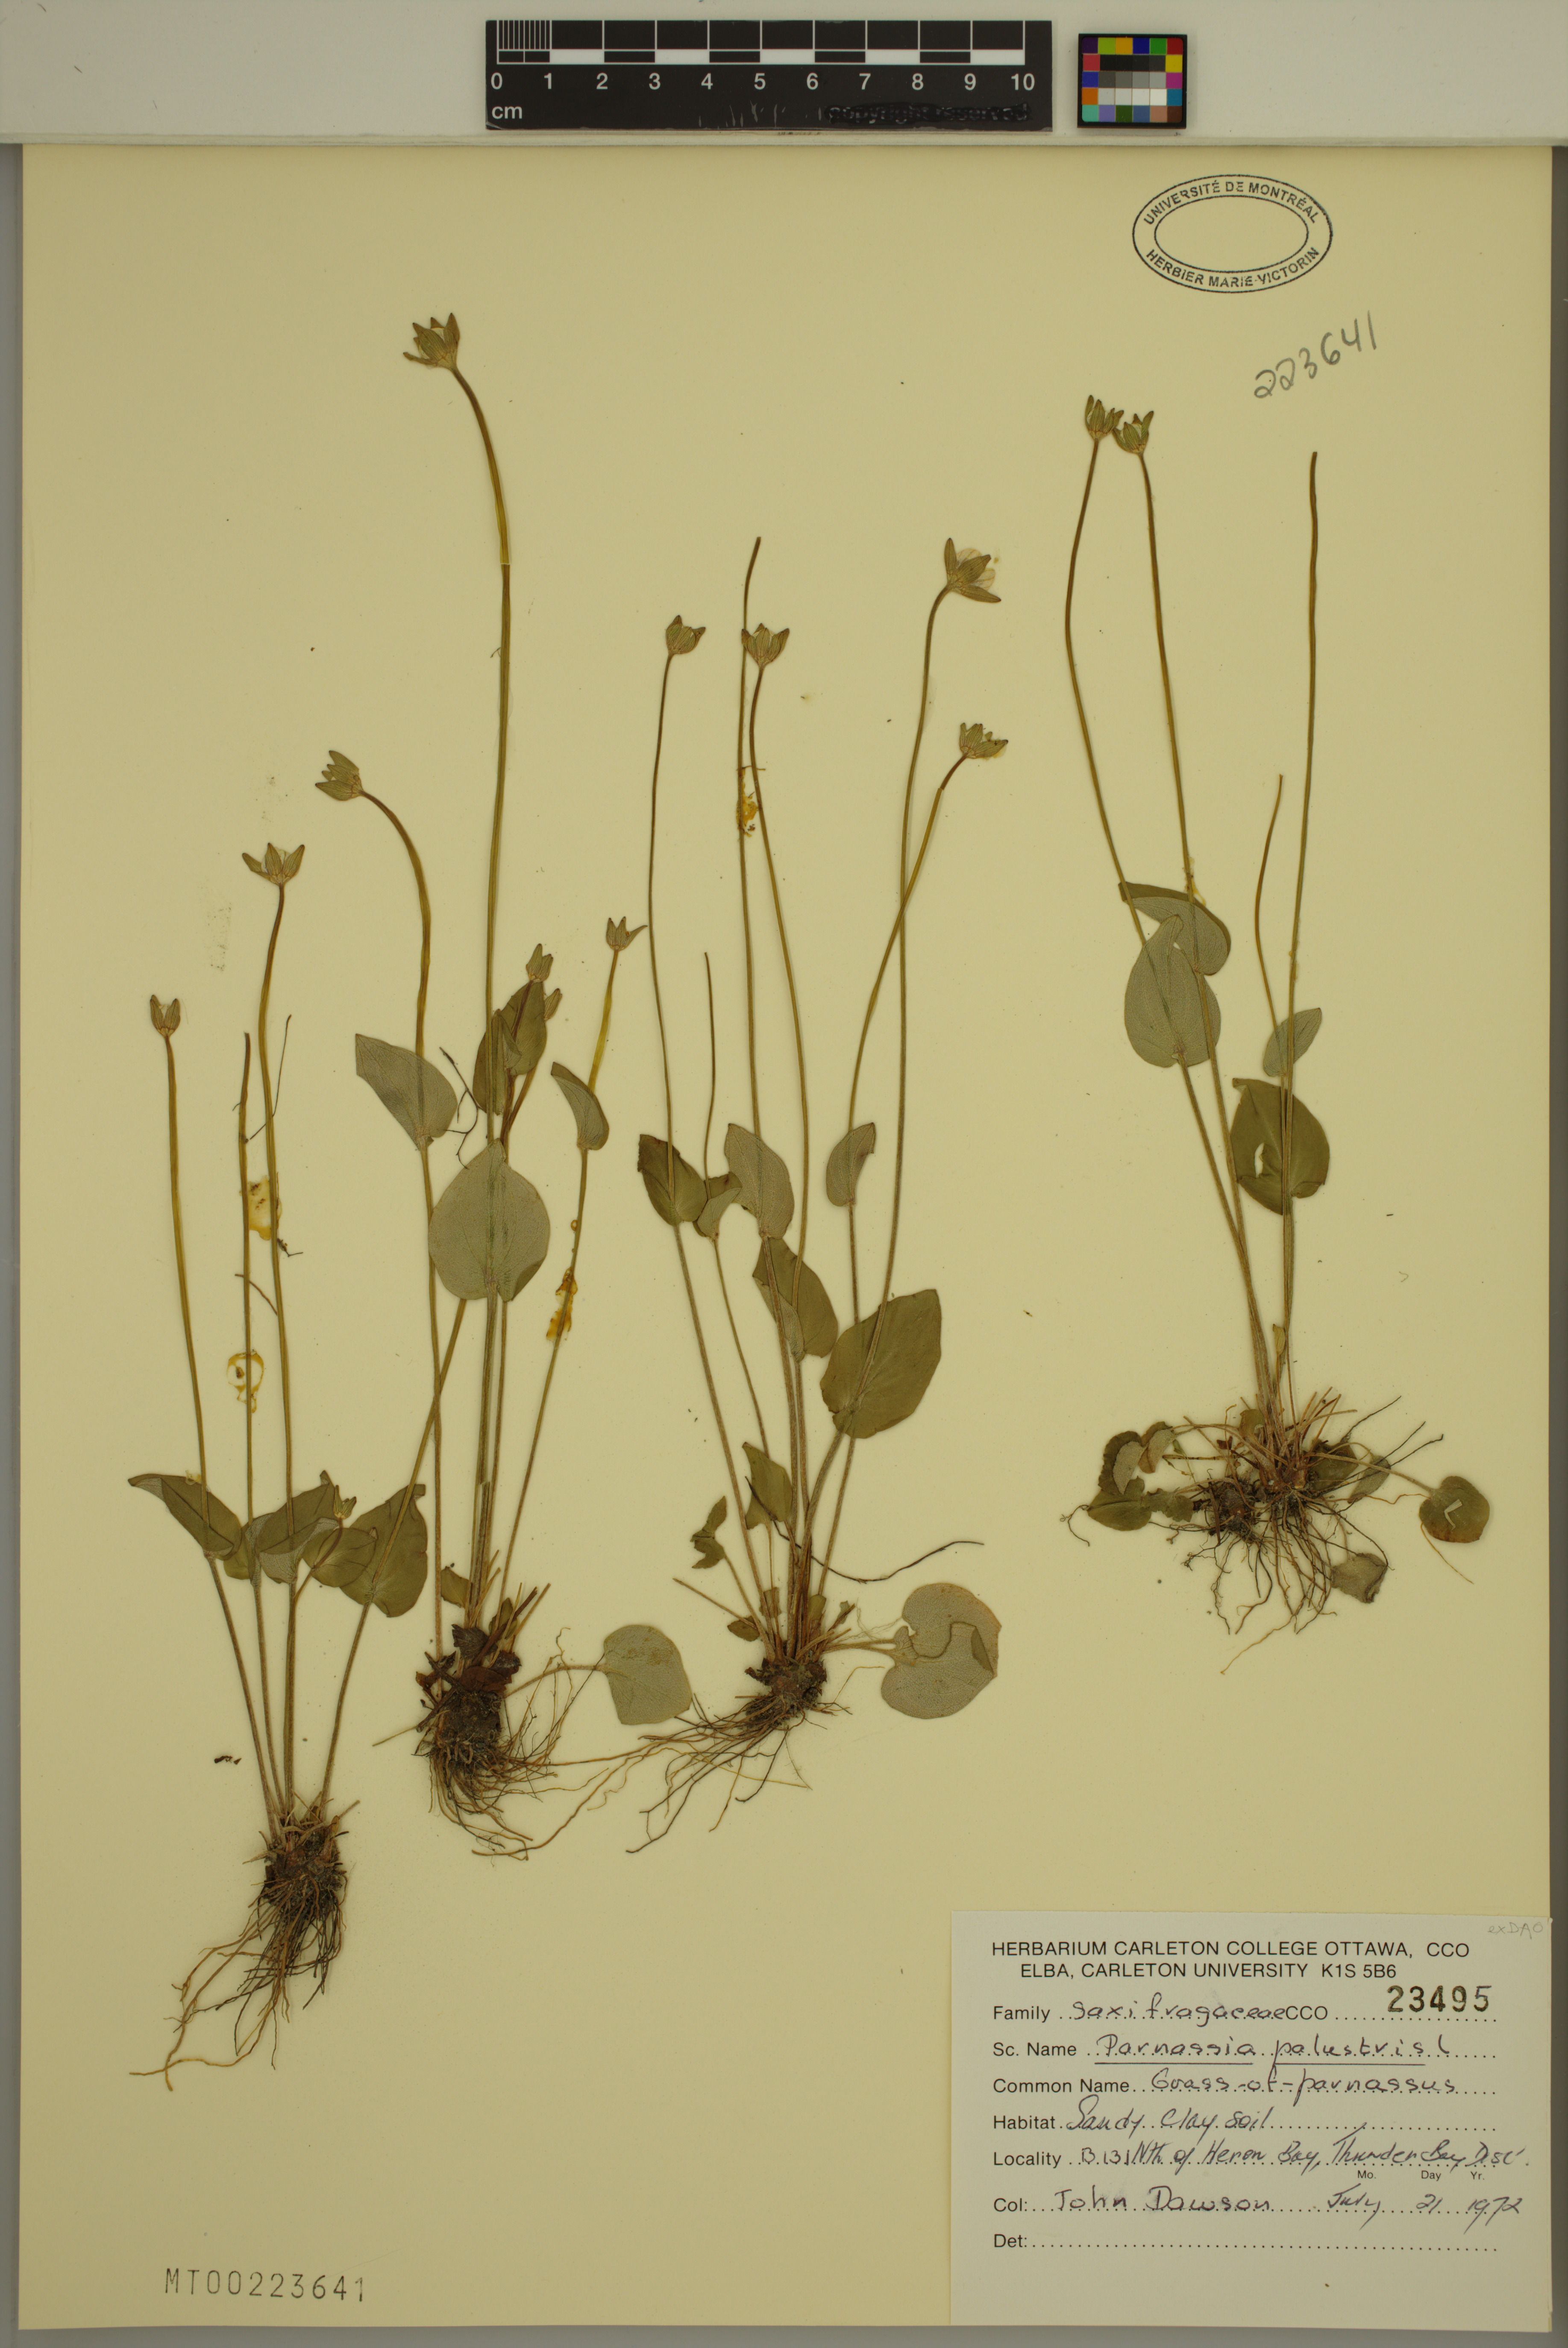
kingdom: Plantae
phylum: Tracheophyta
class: Magnoliopsida
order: Celastrales
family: Parnassiaceae
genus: Parnassia
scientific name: Parnassia palustris
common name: Grass-of-parnassus
